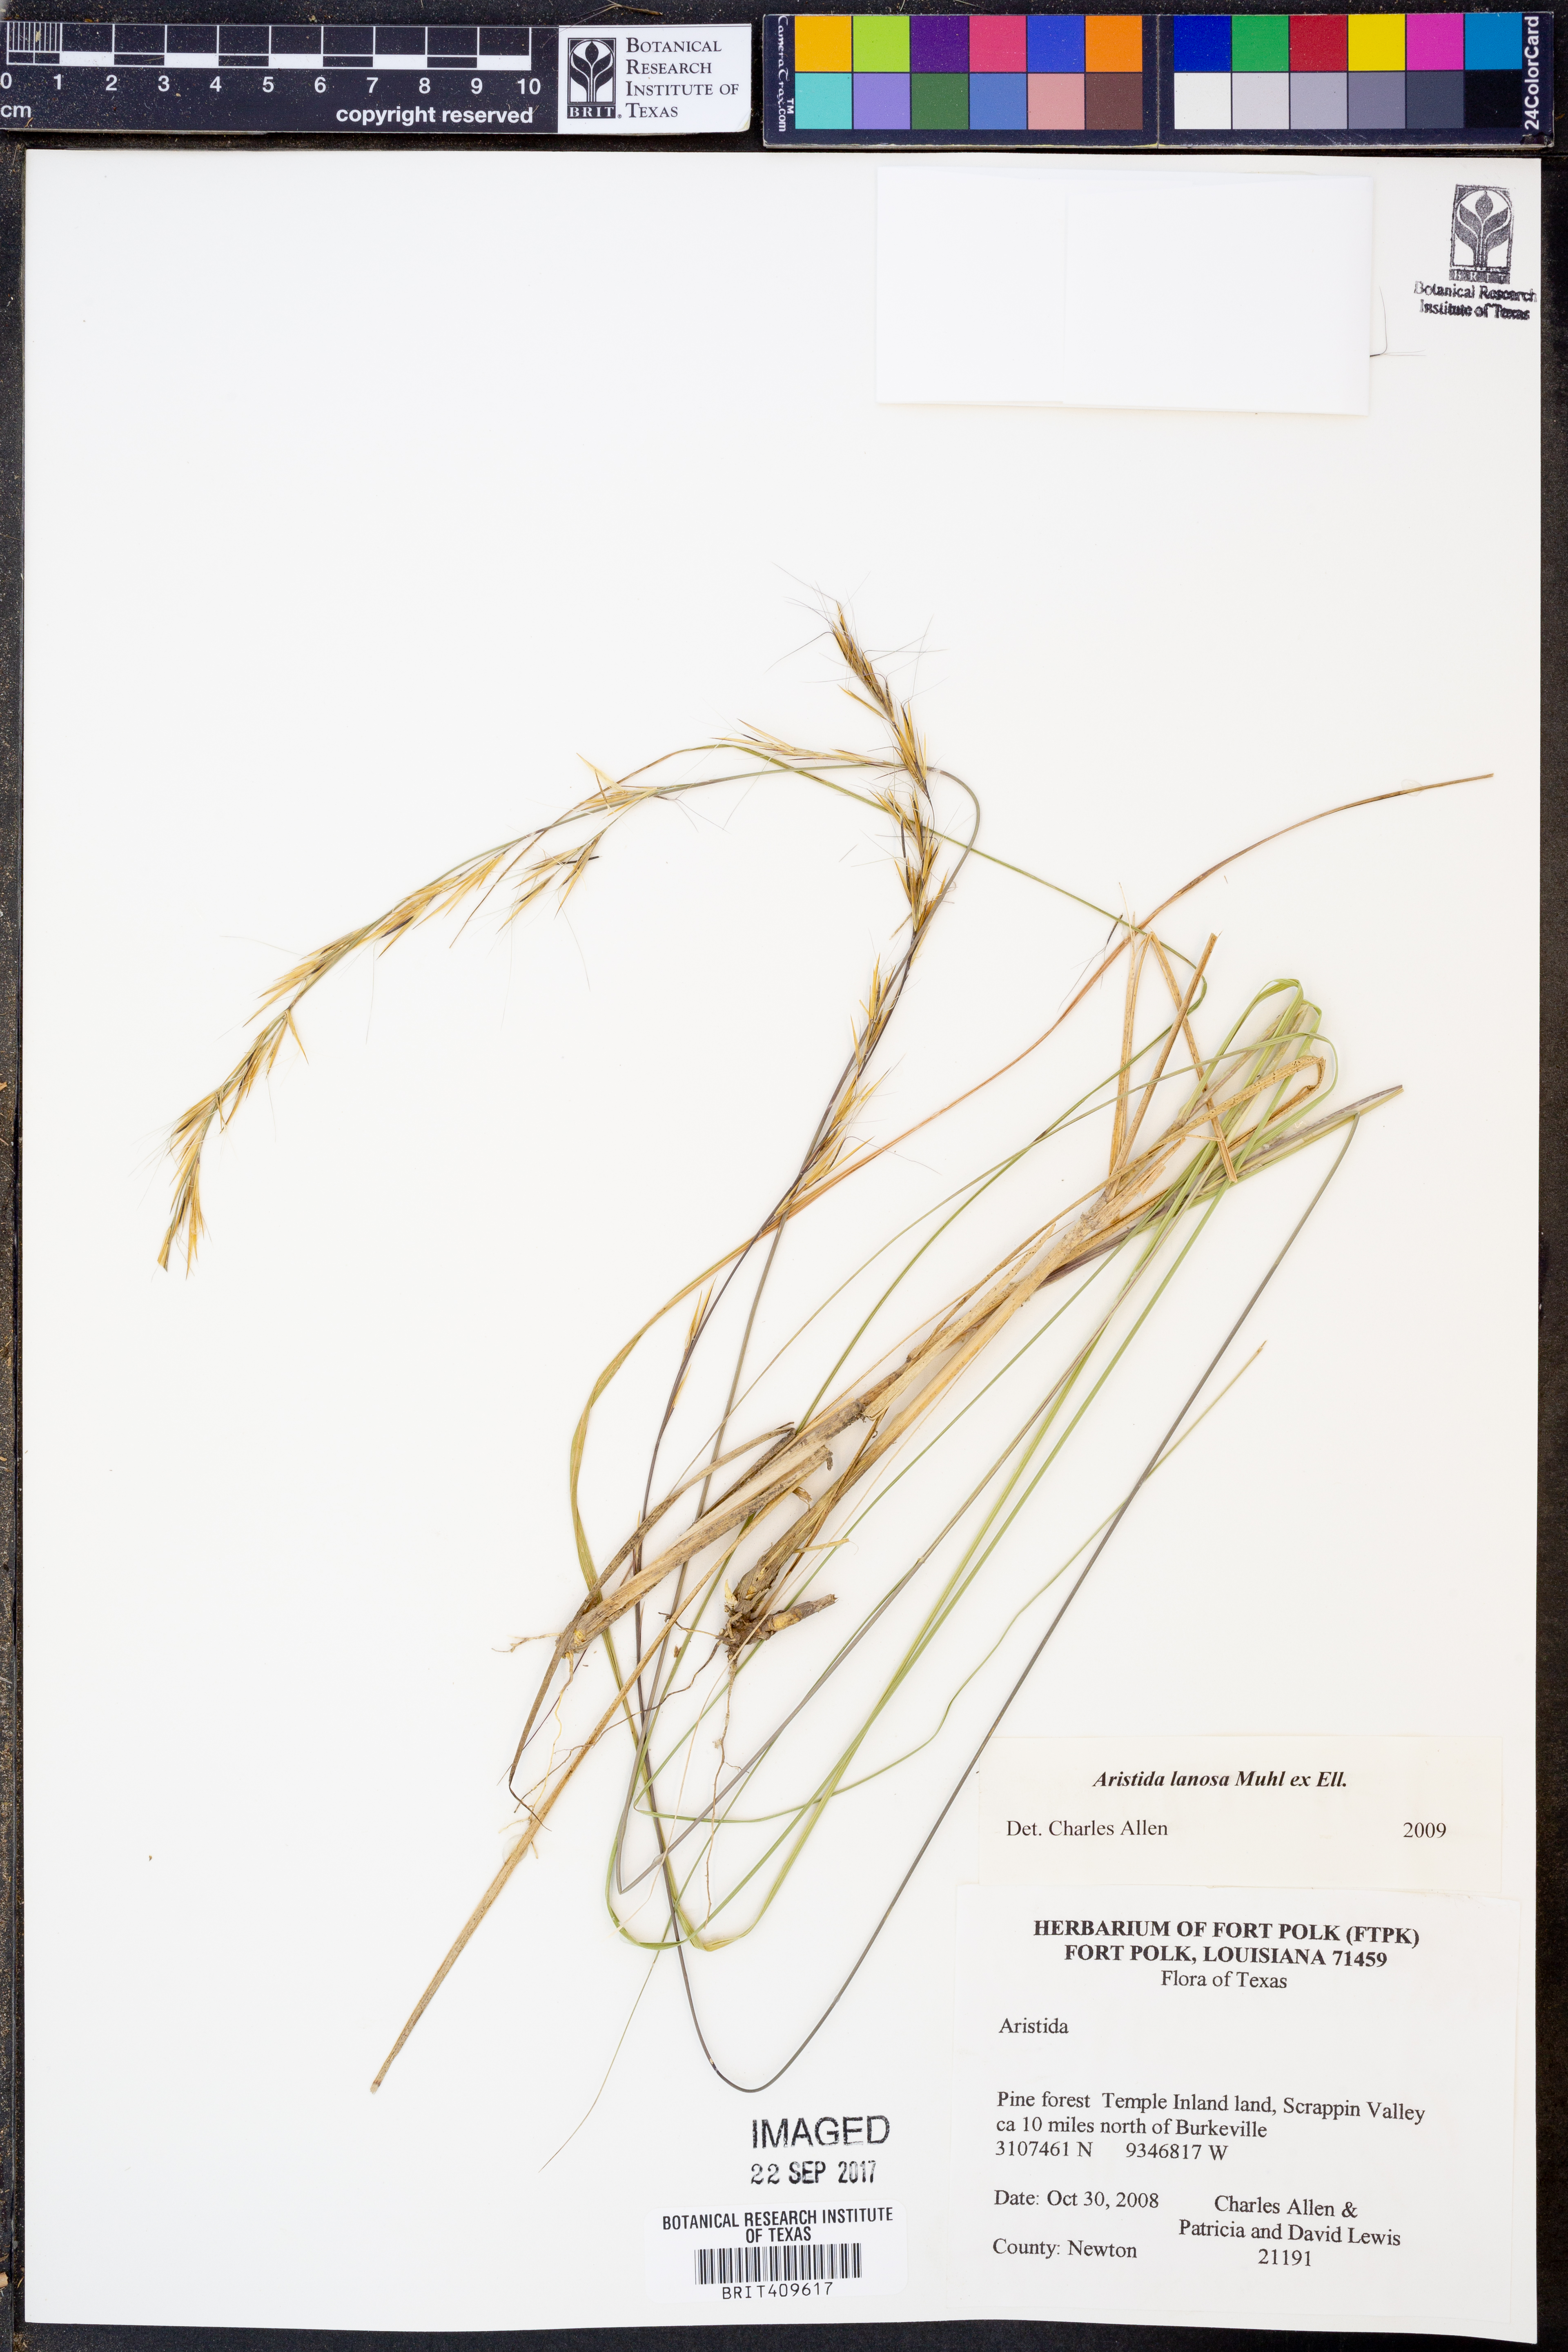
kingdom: Plantae
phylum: Tracheophyta
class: Liliopsida
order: Poales
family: Poaceae
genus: Aristida
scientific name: Aristida lanosa
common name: Woolly three-awn
